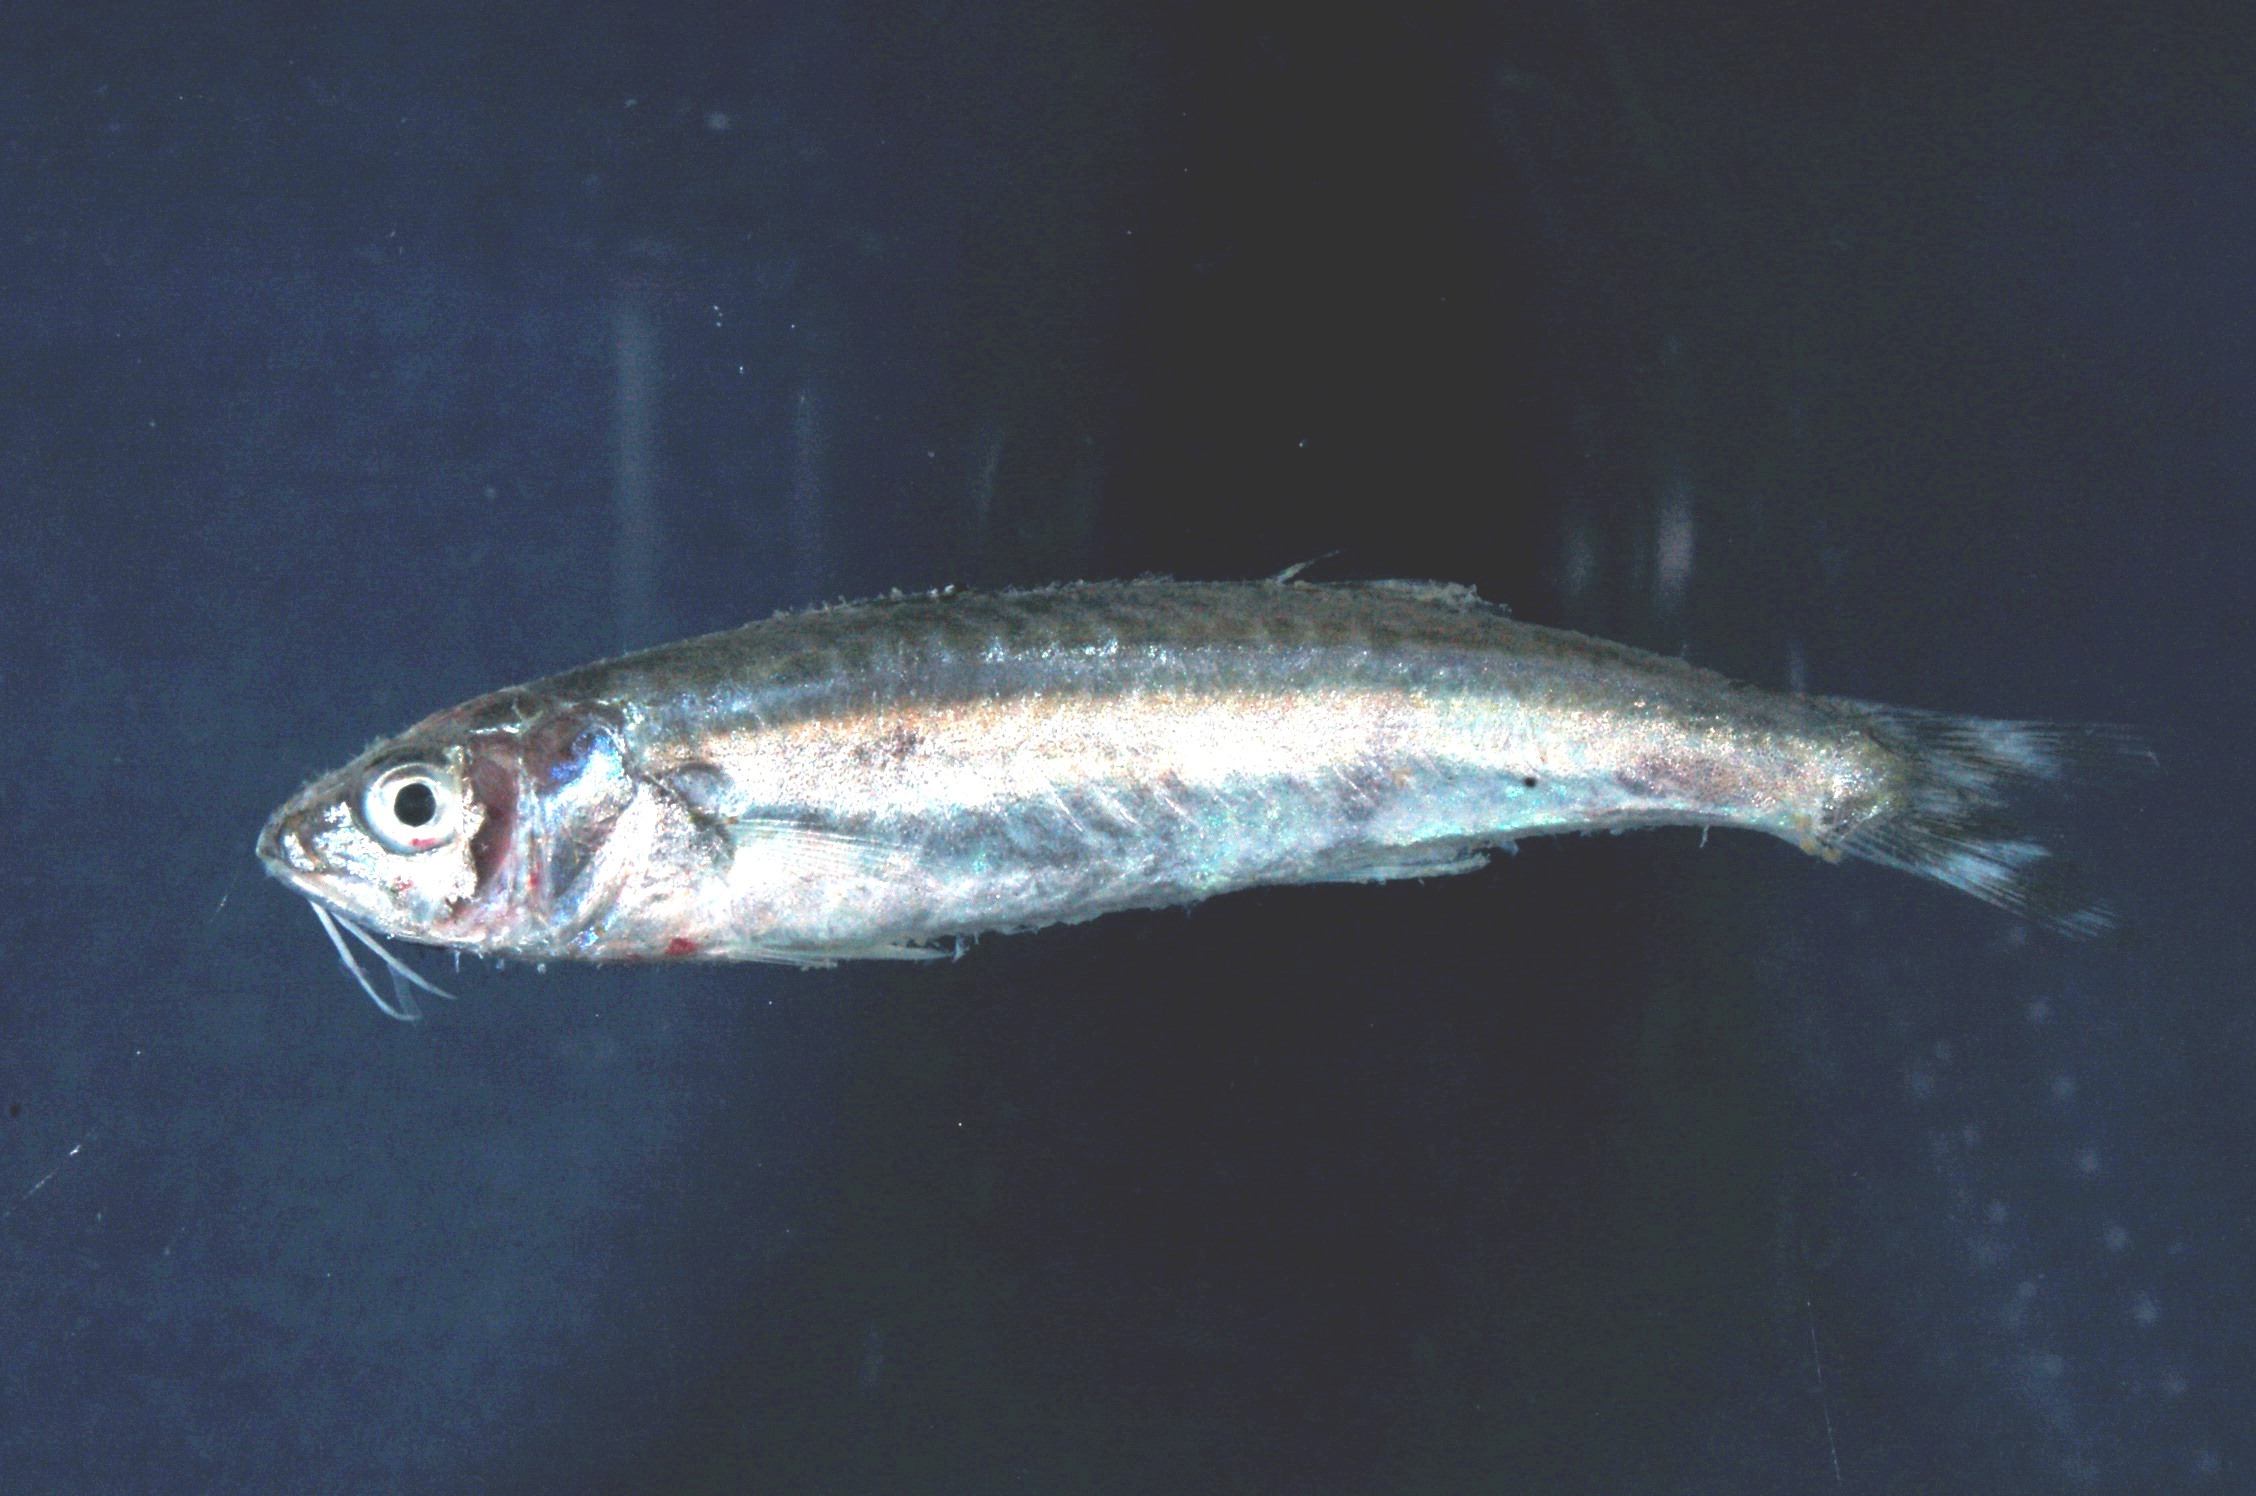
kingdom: Animalia
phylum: Chordata
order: Perciformes
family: Mullidae
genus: Upeneus
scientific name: Upeneus mascareinsis
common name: Mascarene goatfish
